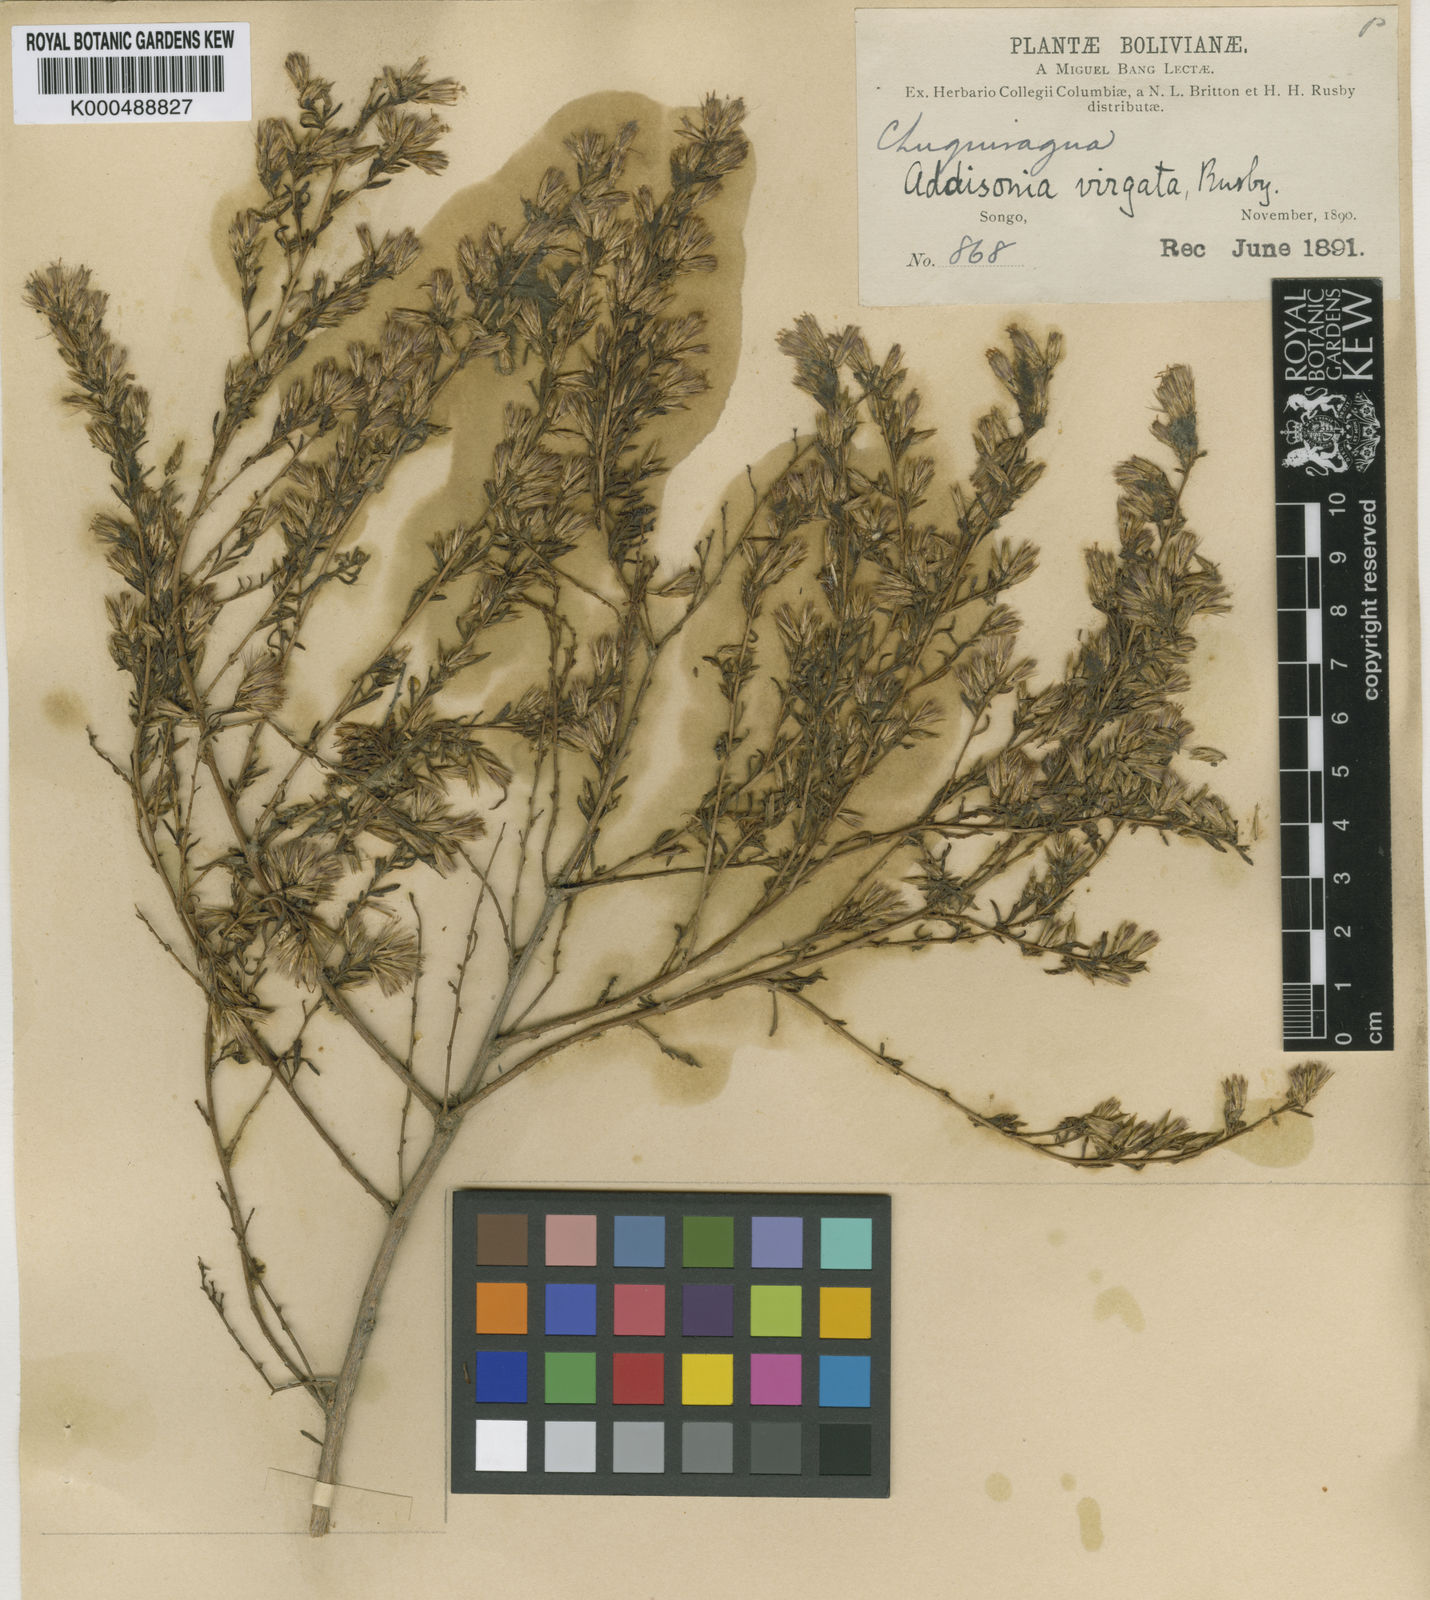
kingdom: Plantae
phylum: Tracheophyta
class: Magnoliopsida
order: Asterales
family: Asteraceae
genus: Helogyne
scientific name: Helogyne virgata
